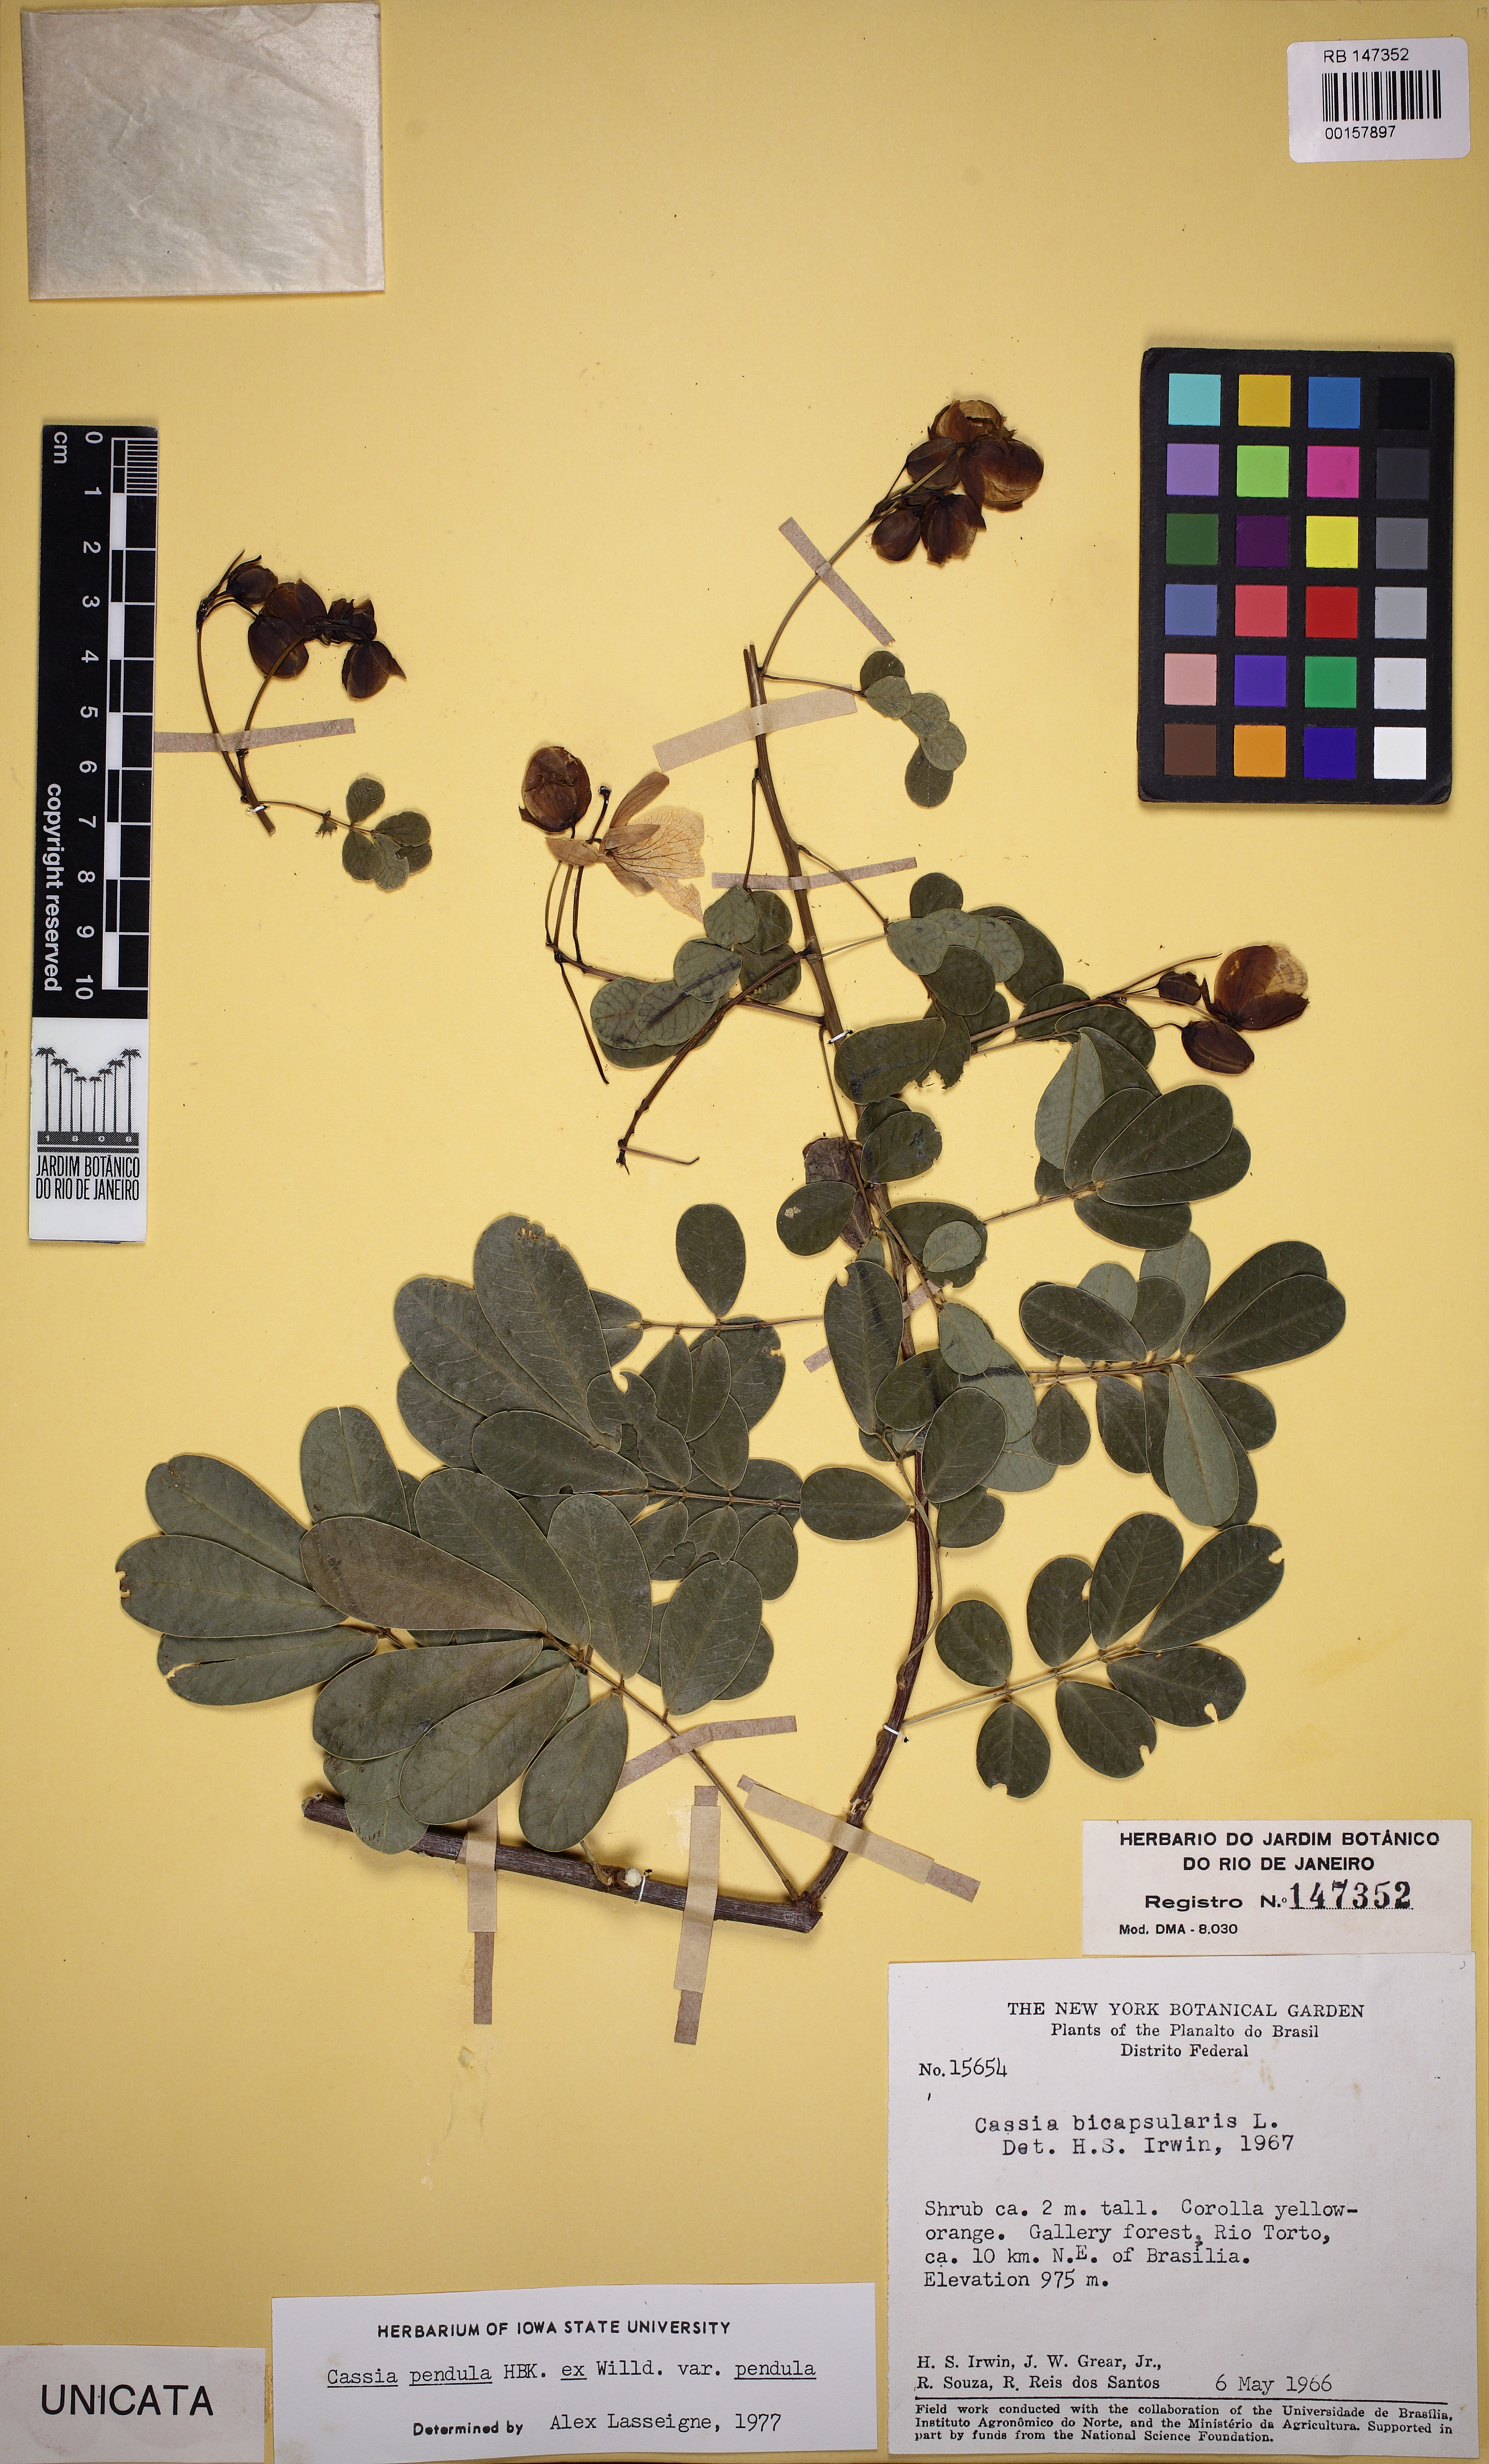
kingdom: Plantae
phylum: Tracheophyta
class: Magnoliopsida
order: Fabales
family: Fabaceae
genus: Senna
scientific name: Senna pendula
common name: Easter cassia
